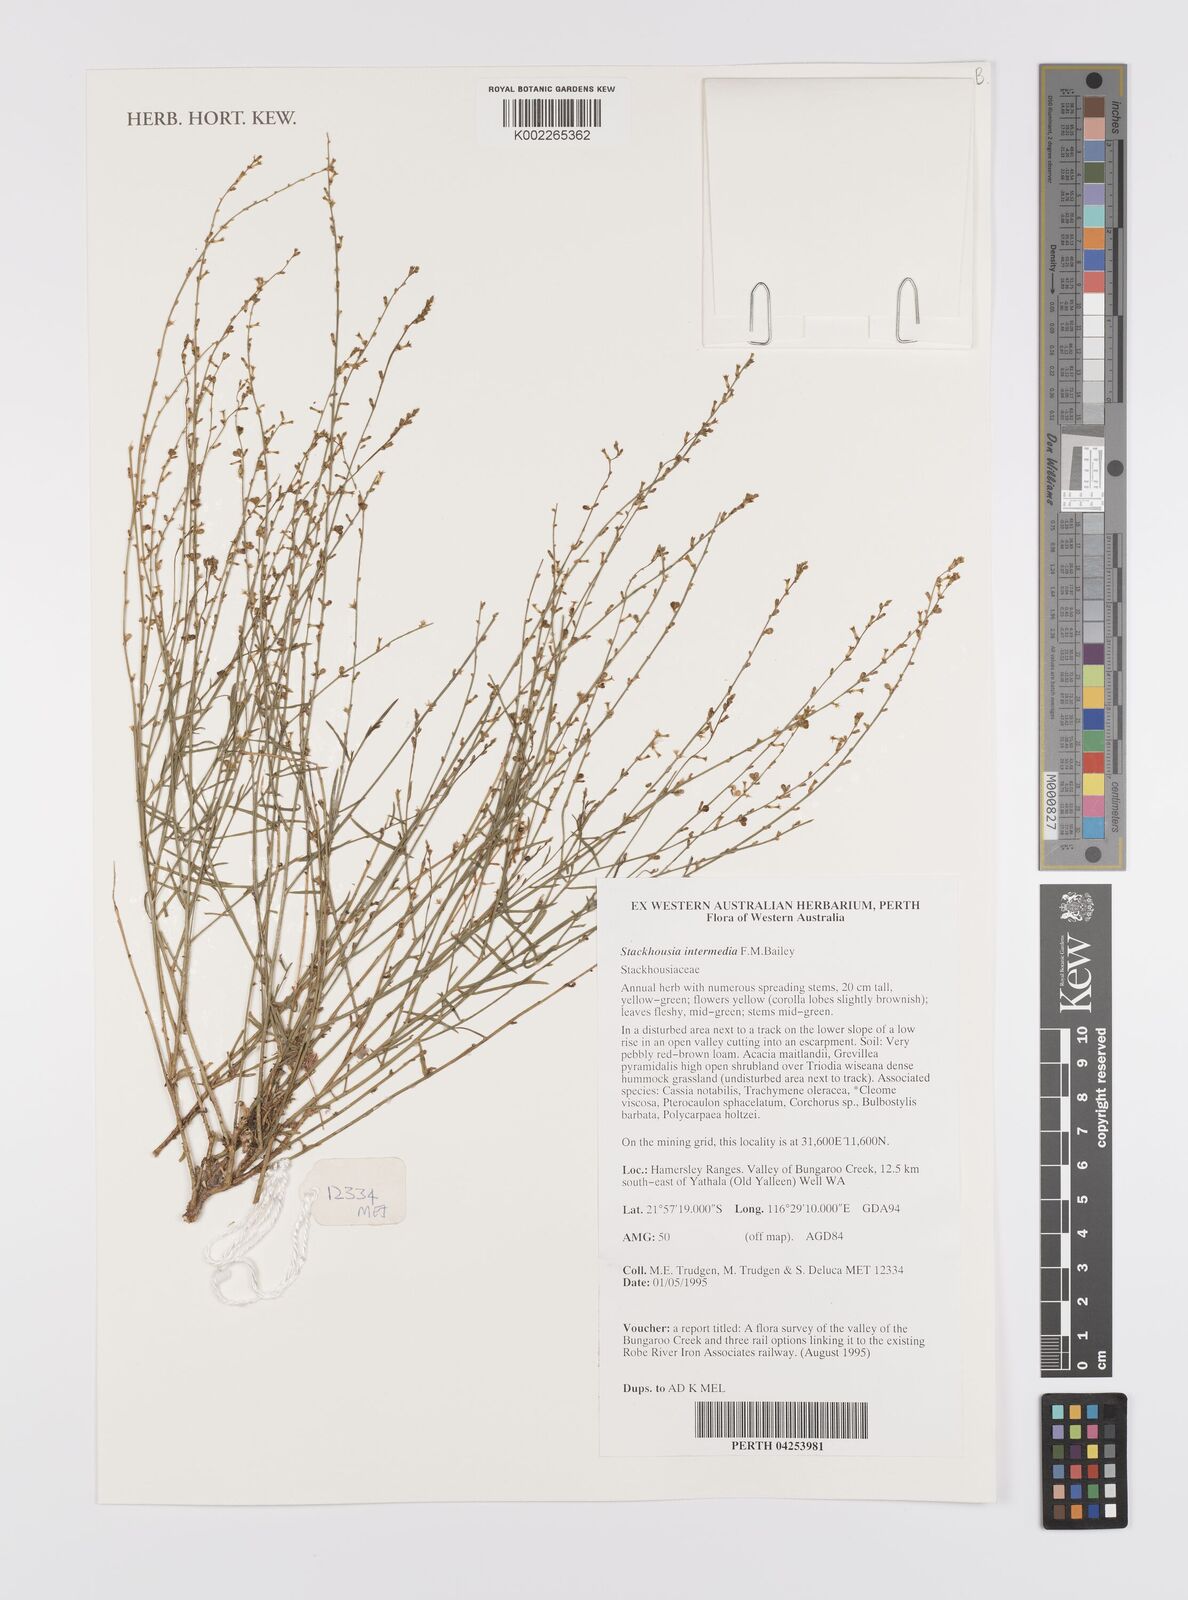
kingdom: Plantae
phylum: Tracheophyta
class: Magnoliopsida
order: Celastrales
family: Celastraceae
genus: Stackhousia
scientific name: Stackhousia intermedia
